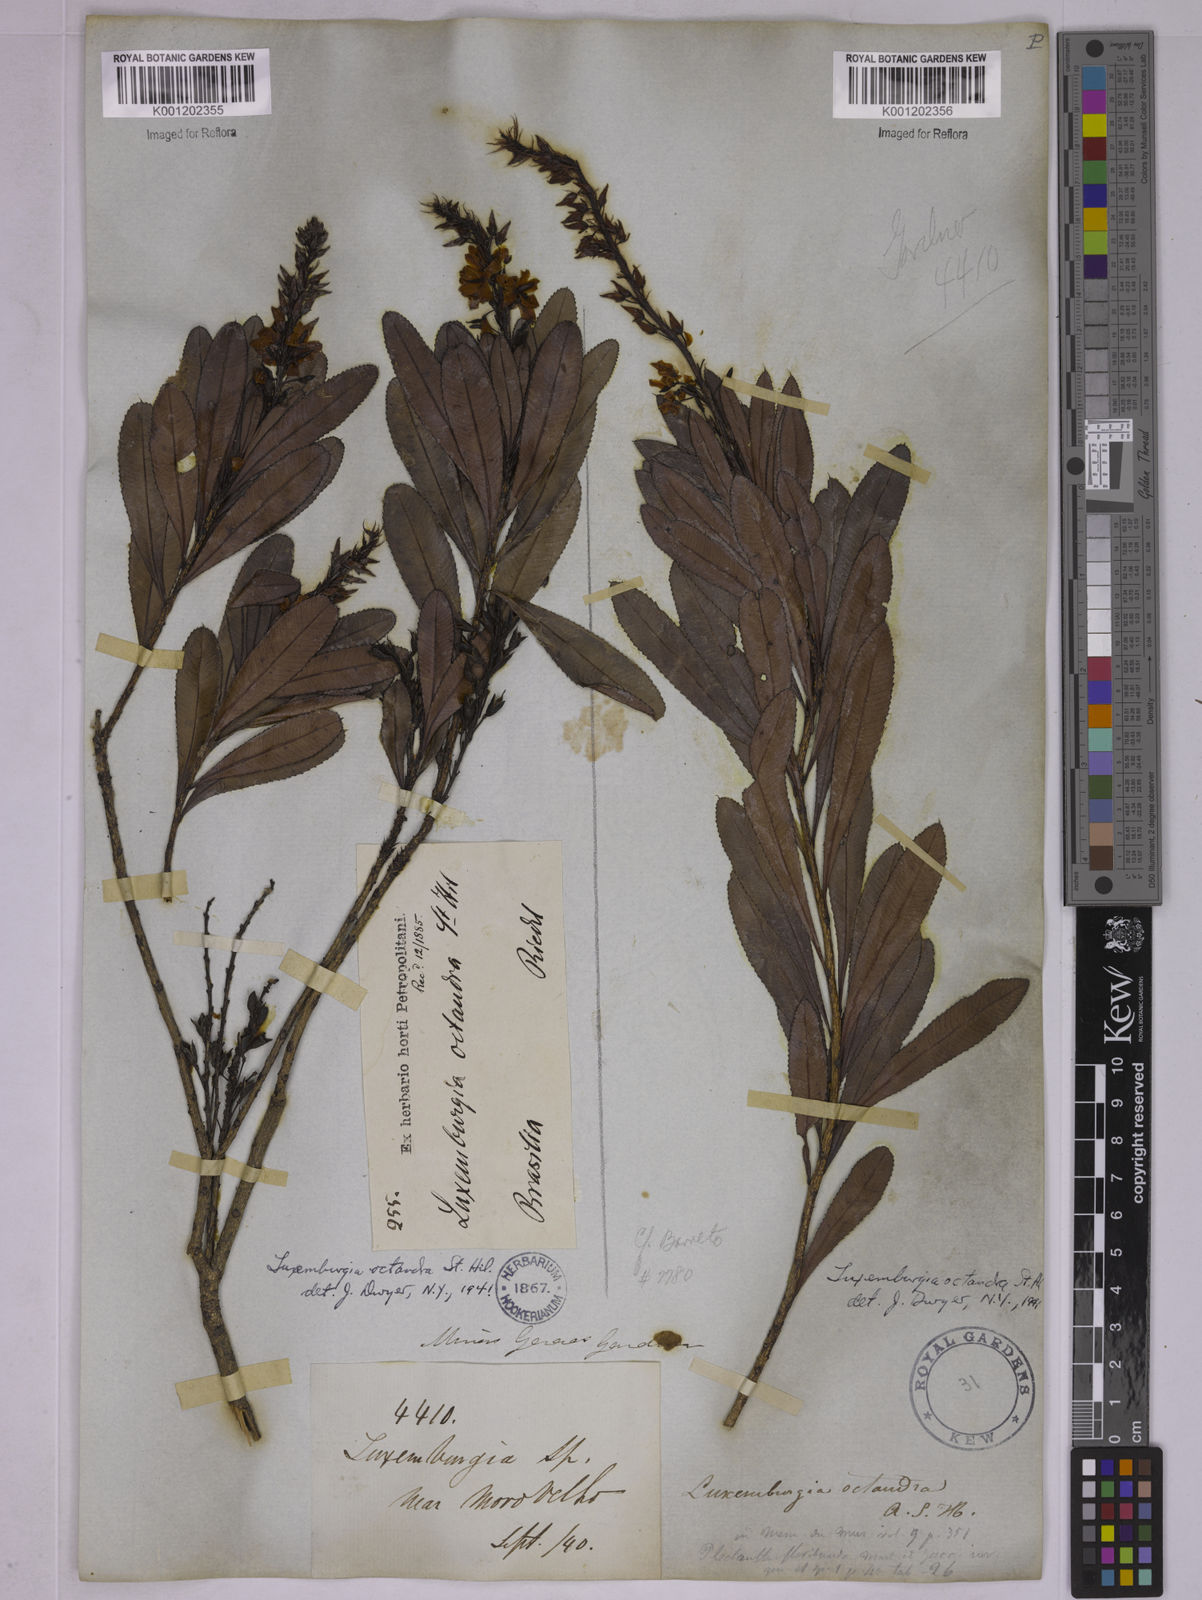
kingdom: Plantae
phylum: Tracheophyta
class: Magnoliopsida
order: Malpighiales
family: Ochnaceae
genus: Luxemburgia
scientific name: Luxemburgia octandra
